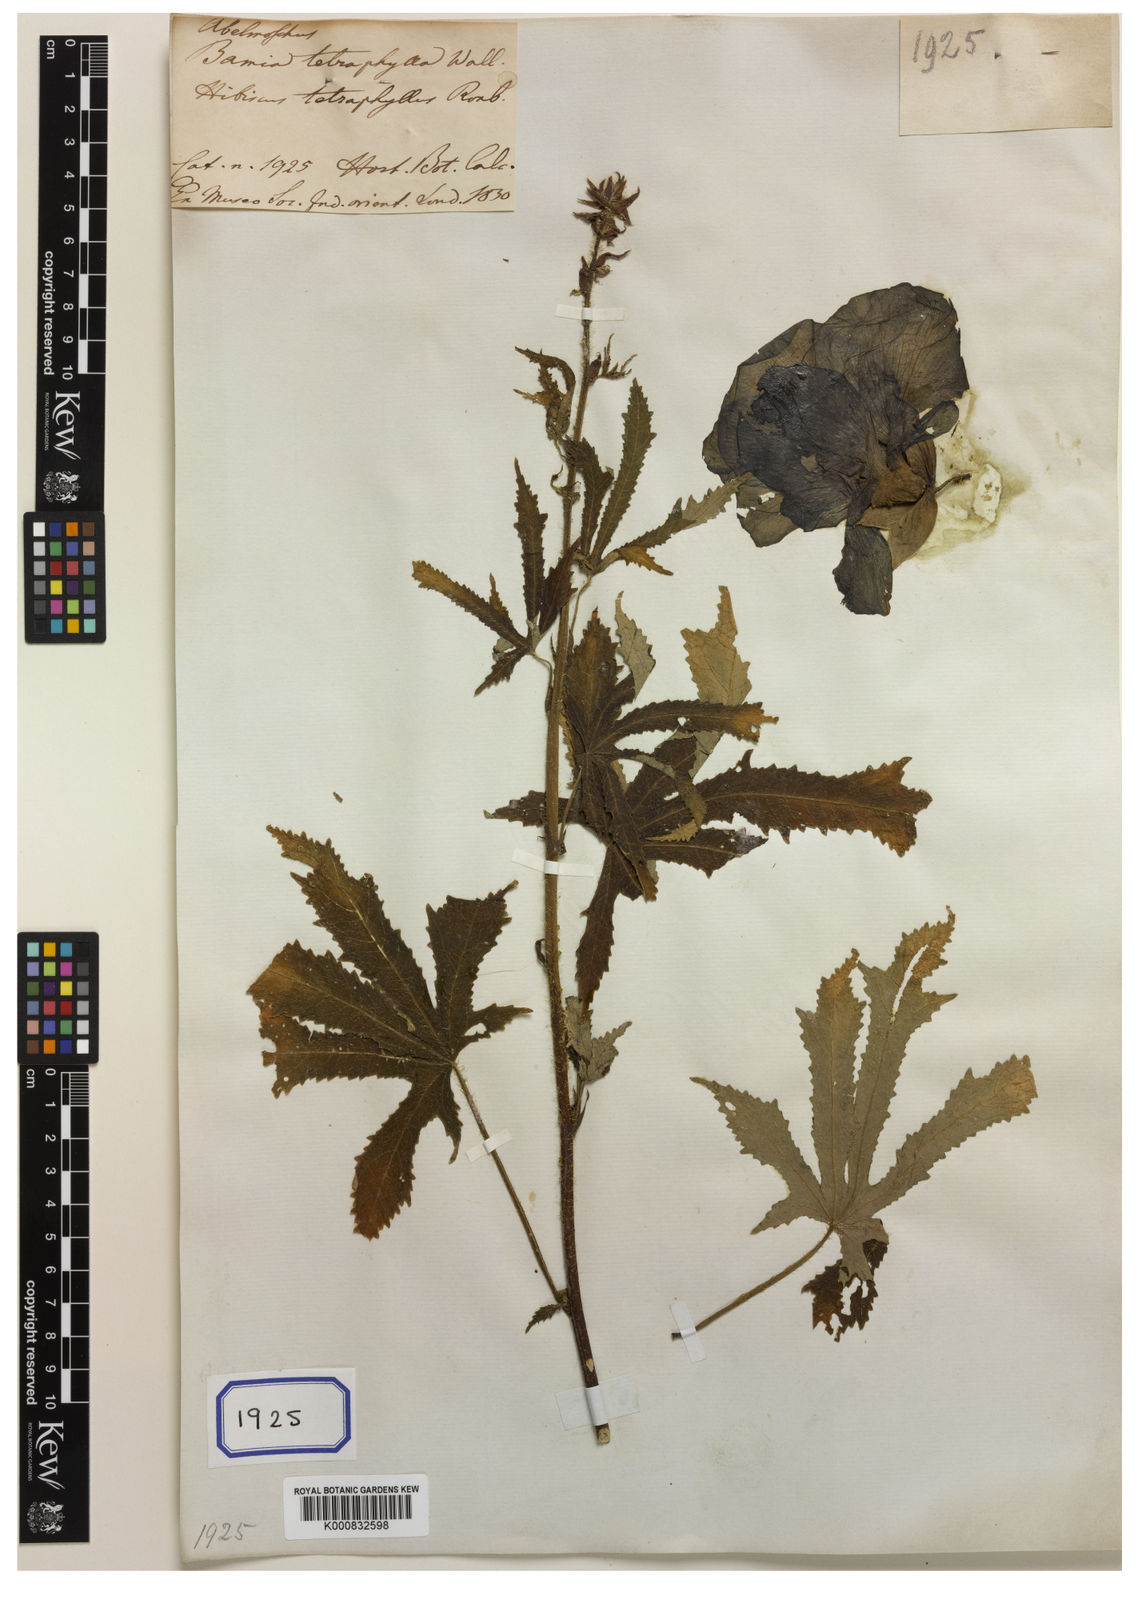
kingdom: Plantae
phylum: Tracheophyta
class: Magnoliopsida
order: Malvales
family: Malvaceae
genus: Abelmoschus
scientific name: Abelmoschus manihot
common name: Sunset muskmallow
